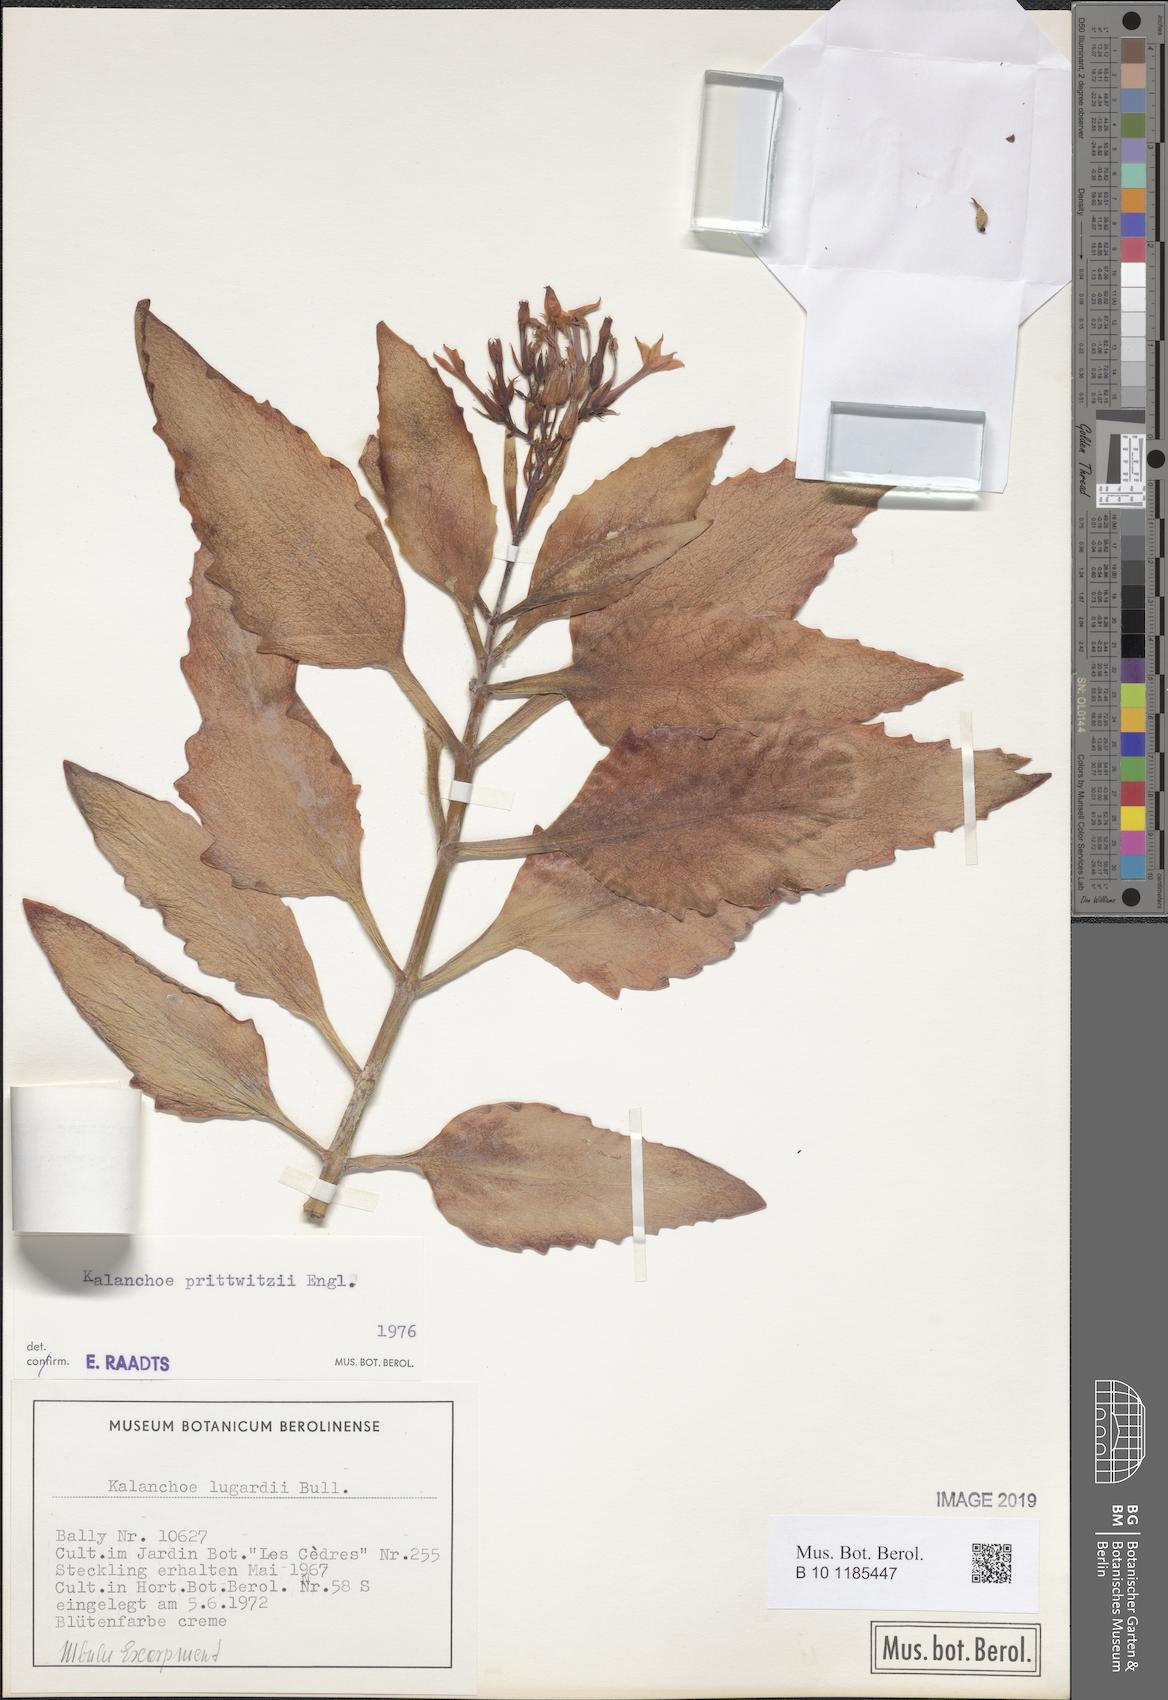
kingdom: Plantae
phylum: Tracheophyta
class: Magnoliopsida
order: Saxifragales
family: Crassulaceae
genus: Kalanchoe
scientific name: Kalanchoe germanae
